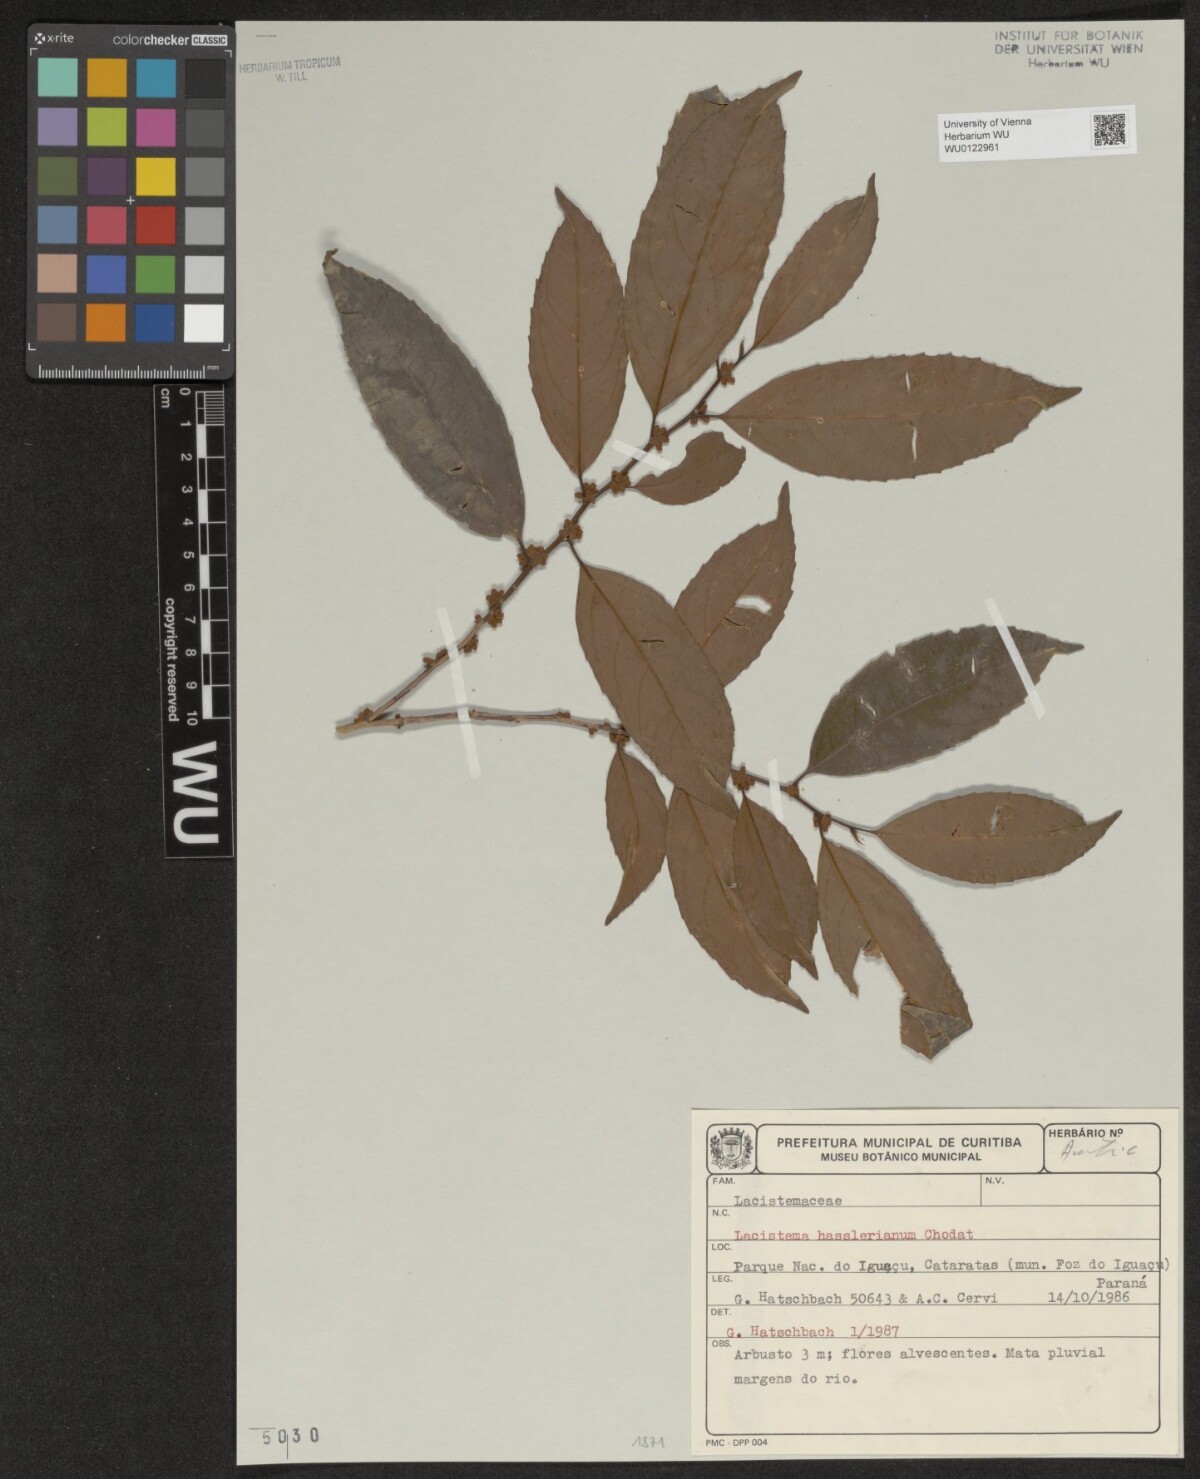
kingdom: Plantae
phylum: Tracheophyta
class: Magnoliopsida
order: Malpighiales
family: Lacistemataceae
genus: Lacistema
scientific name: Lacistema hasslerianum
